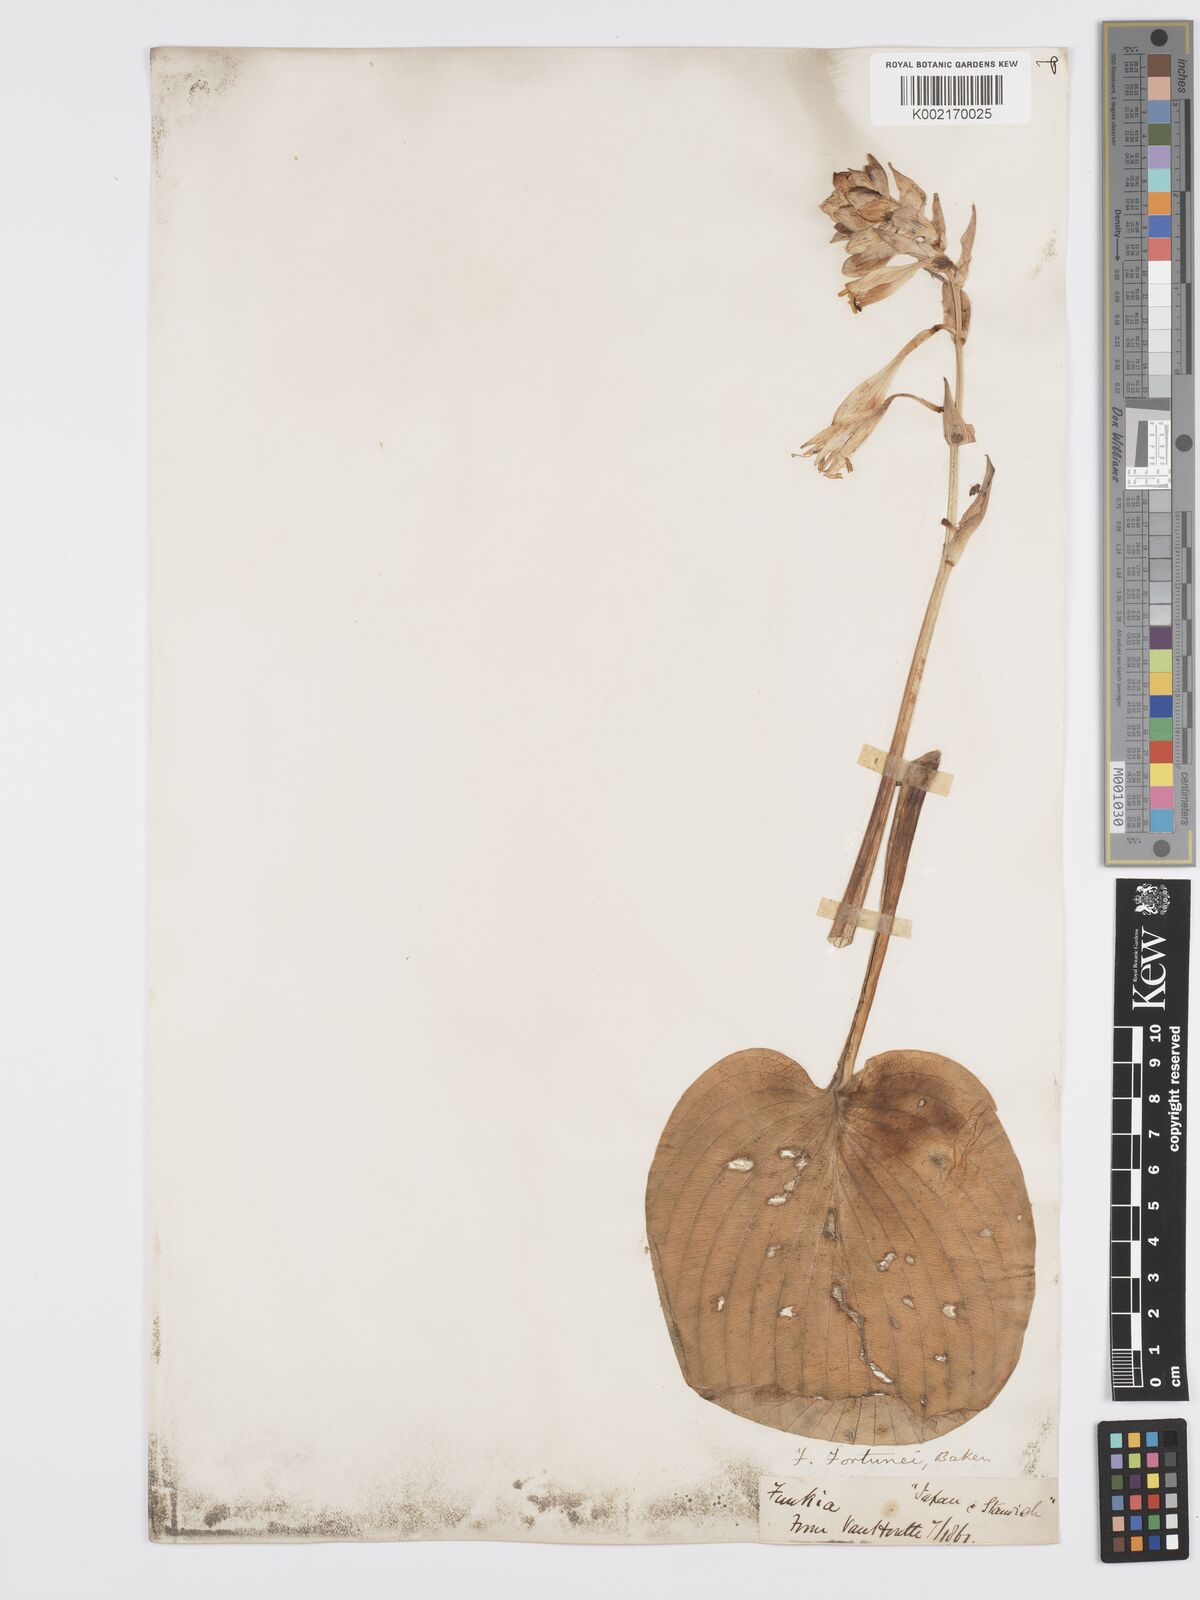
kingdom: Plantae
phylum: Tracheophyta
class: Liliopsida
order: Asparagales
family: Asparagaceae
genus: Hosta
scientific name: Hosta sieboldiana
